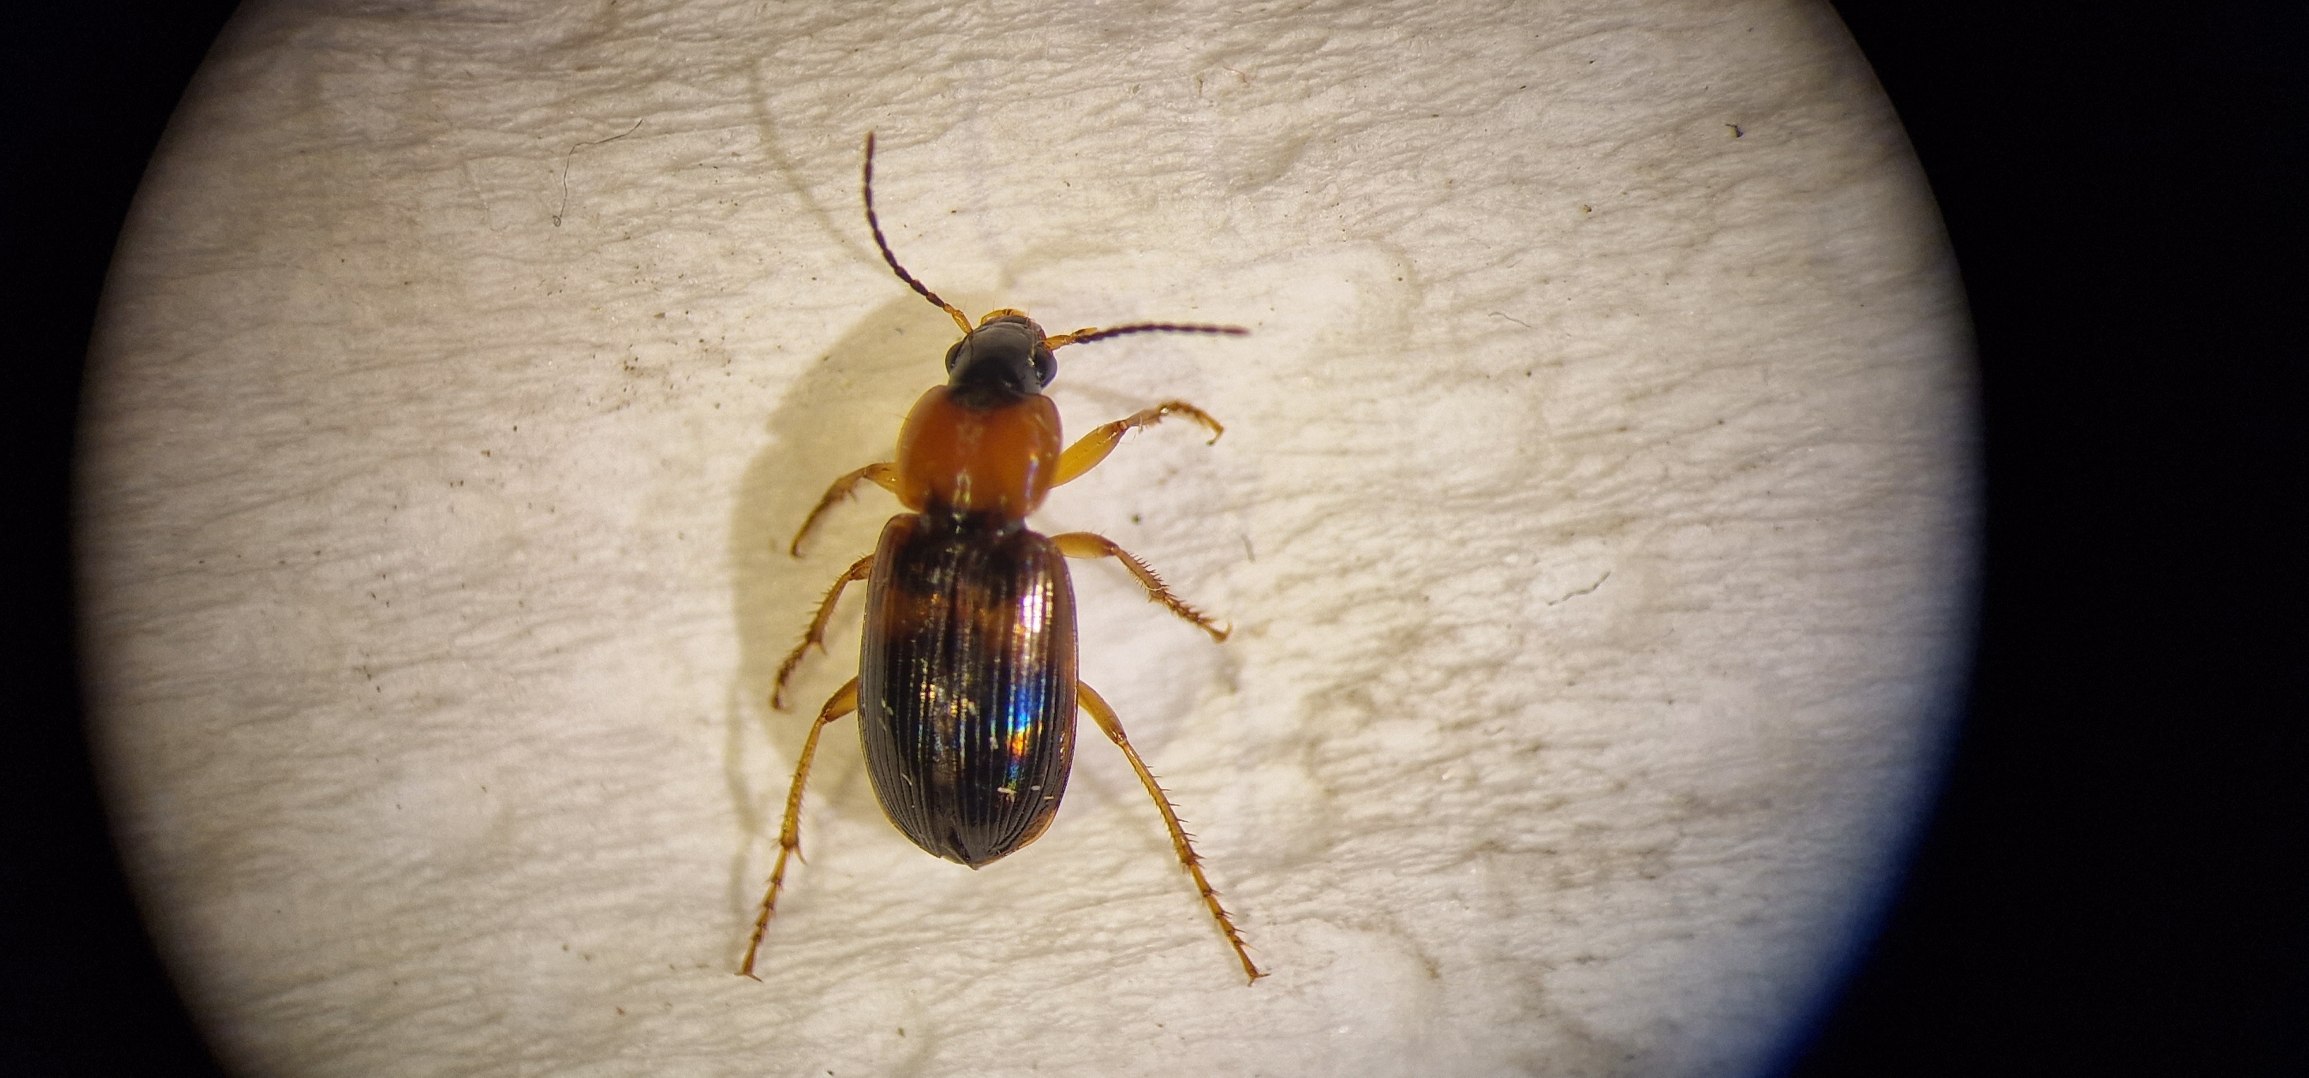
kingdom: Animalia
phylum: Arthropoda
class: Insecta
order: Coleoptera
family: Carabidae
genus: Stenolophus
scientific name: Stenolophus teutonus
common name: Spraglet damløber
